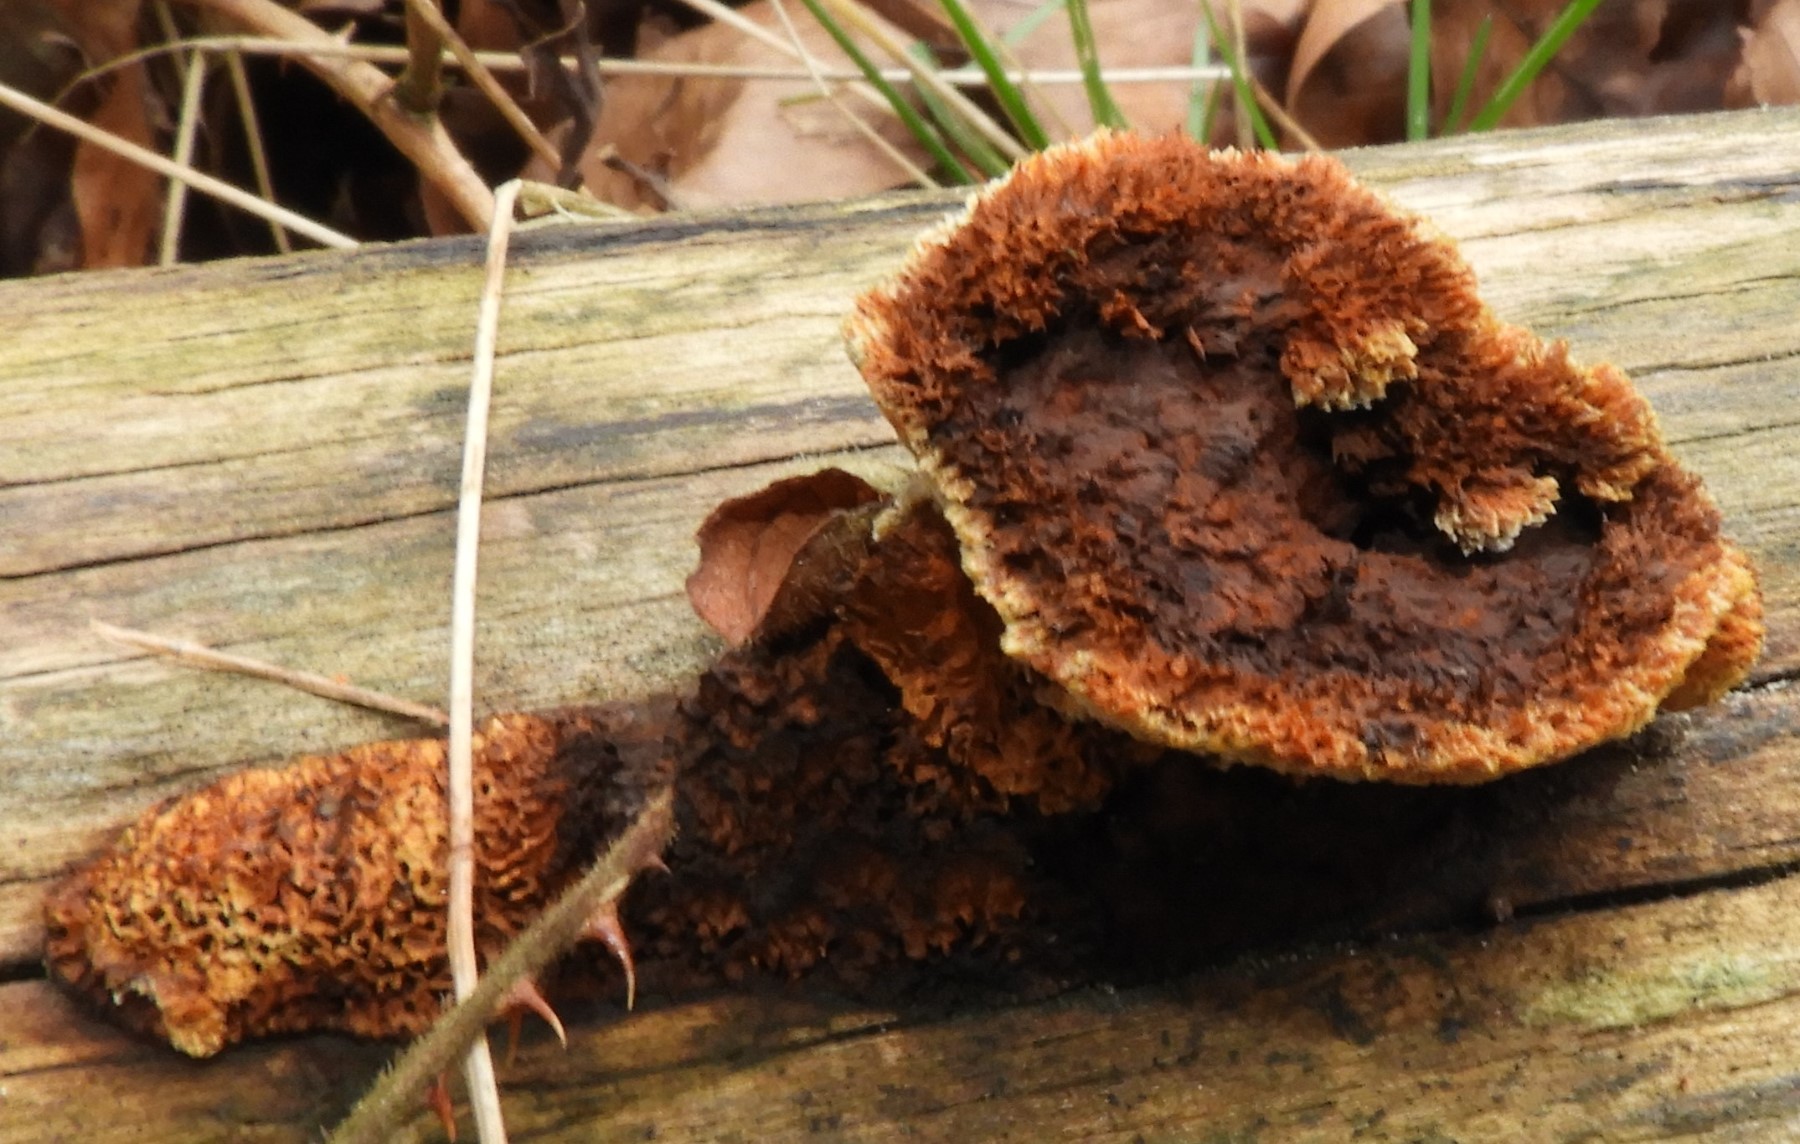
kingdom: Fungi
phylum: Basidiomycota
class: Agaricomycetes
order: Gloeophyllales
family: Gloeophyllaceae
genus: Gloeophyllum
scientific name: Gloeophyllum sepiarium
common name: fyrre-korkhat
